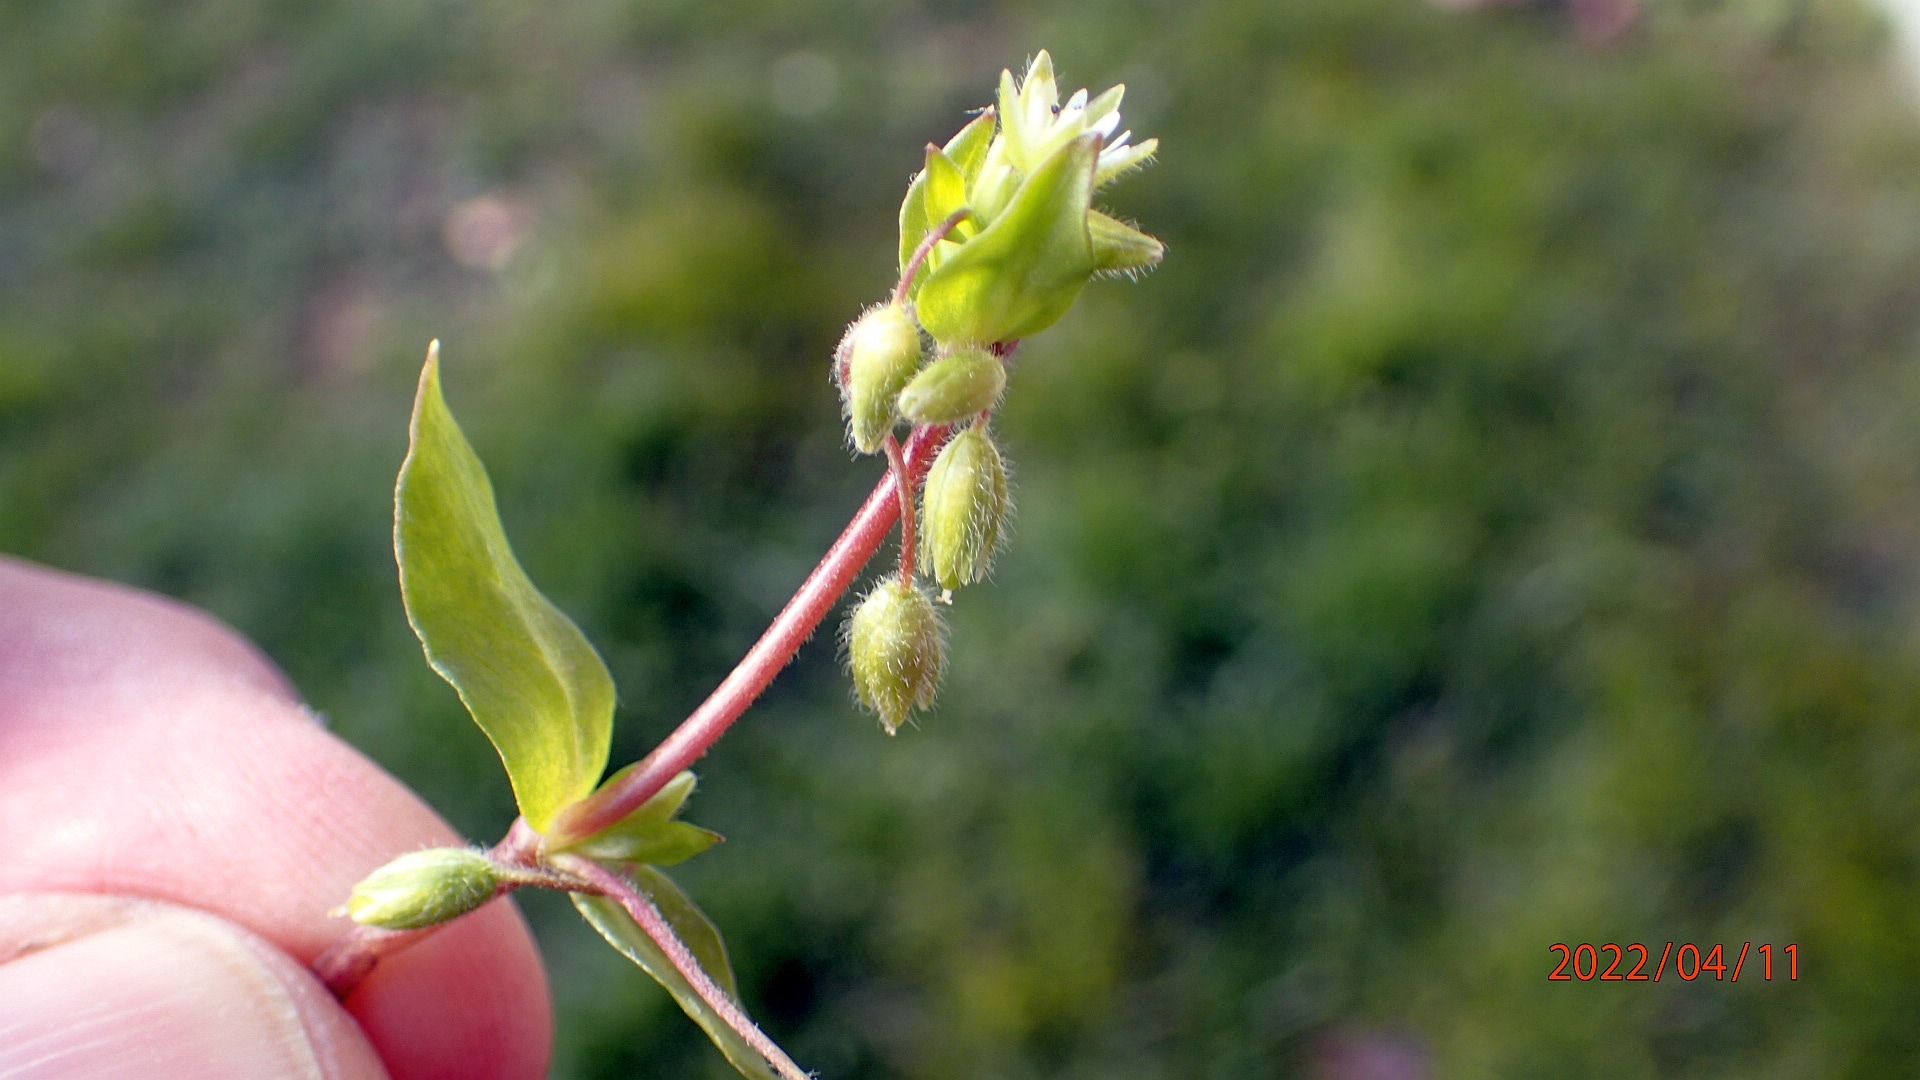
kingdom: Plantae
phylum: Tracheophyta
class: Magnoliopsida
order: Caryophyllales
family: Caryophyllaceae
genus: Stellaria
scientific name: Stellaria media
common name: Almindelig fuglegræs
